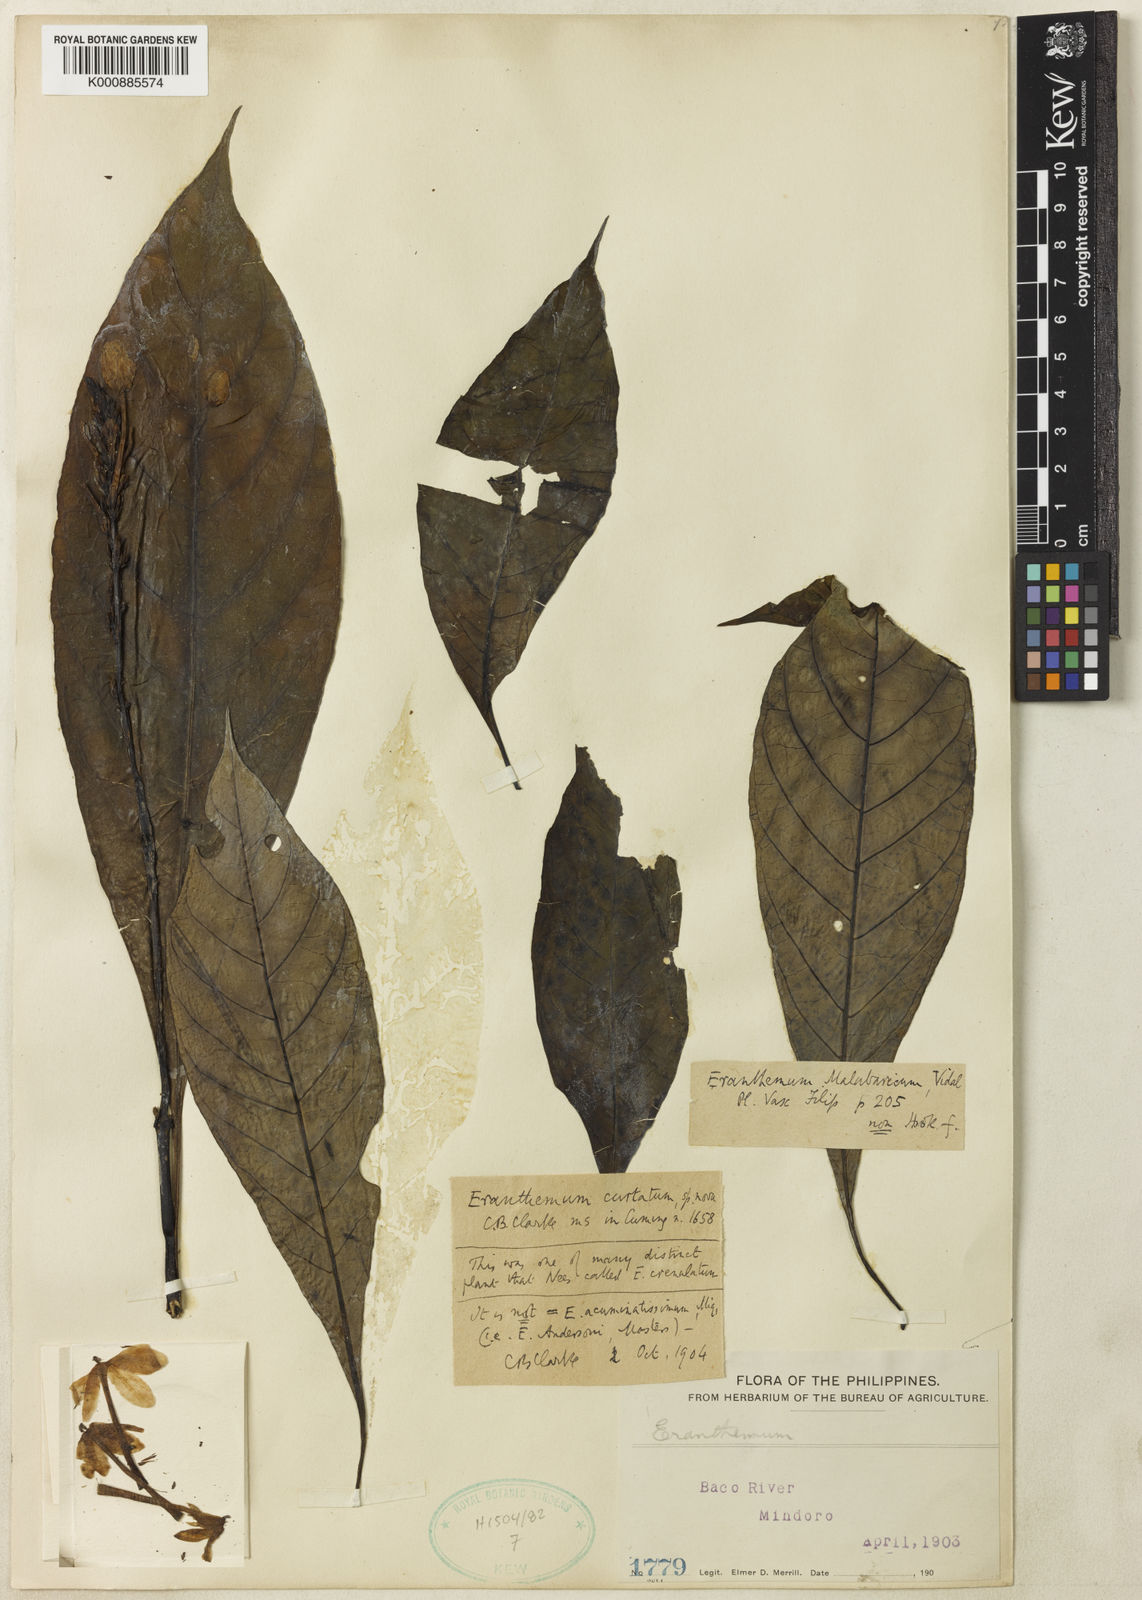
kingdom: Plantae
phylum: Tracheophyta
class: Magnoliopsida
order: Lamiales
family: Acanthaceae
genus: Pseuderanthemum
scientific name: Pseuderanthemum curtatum
